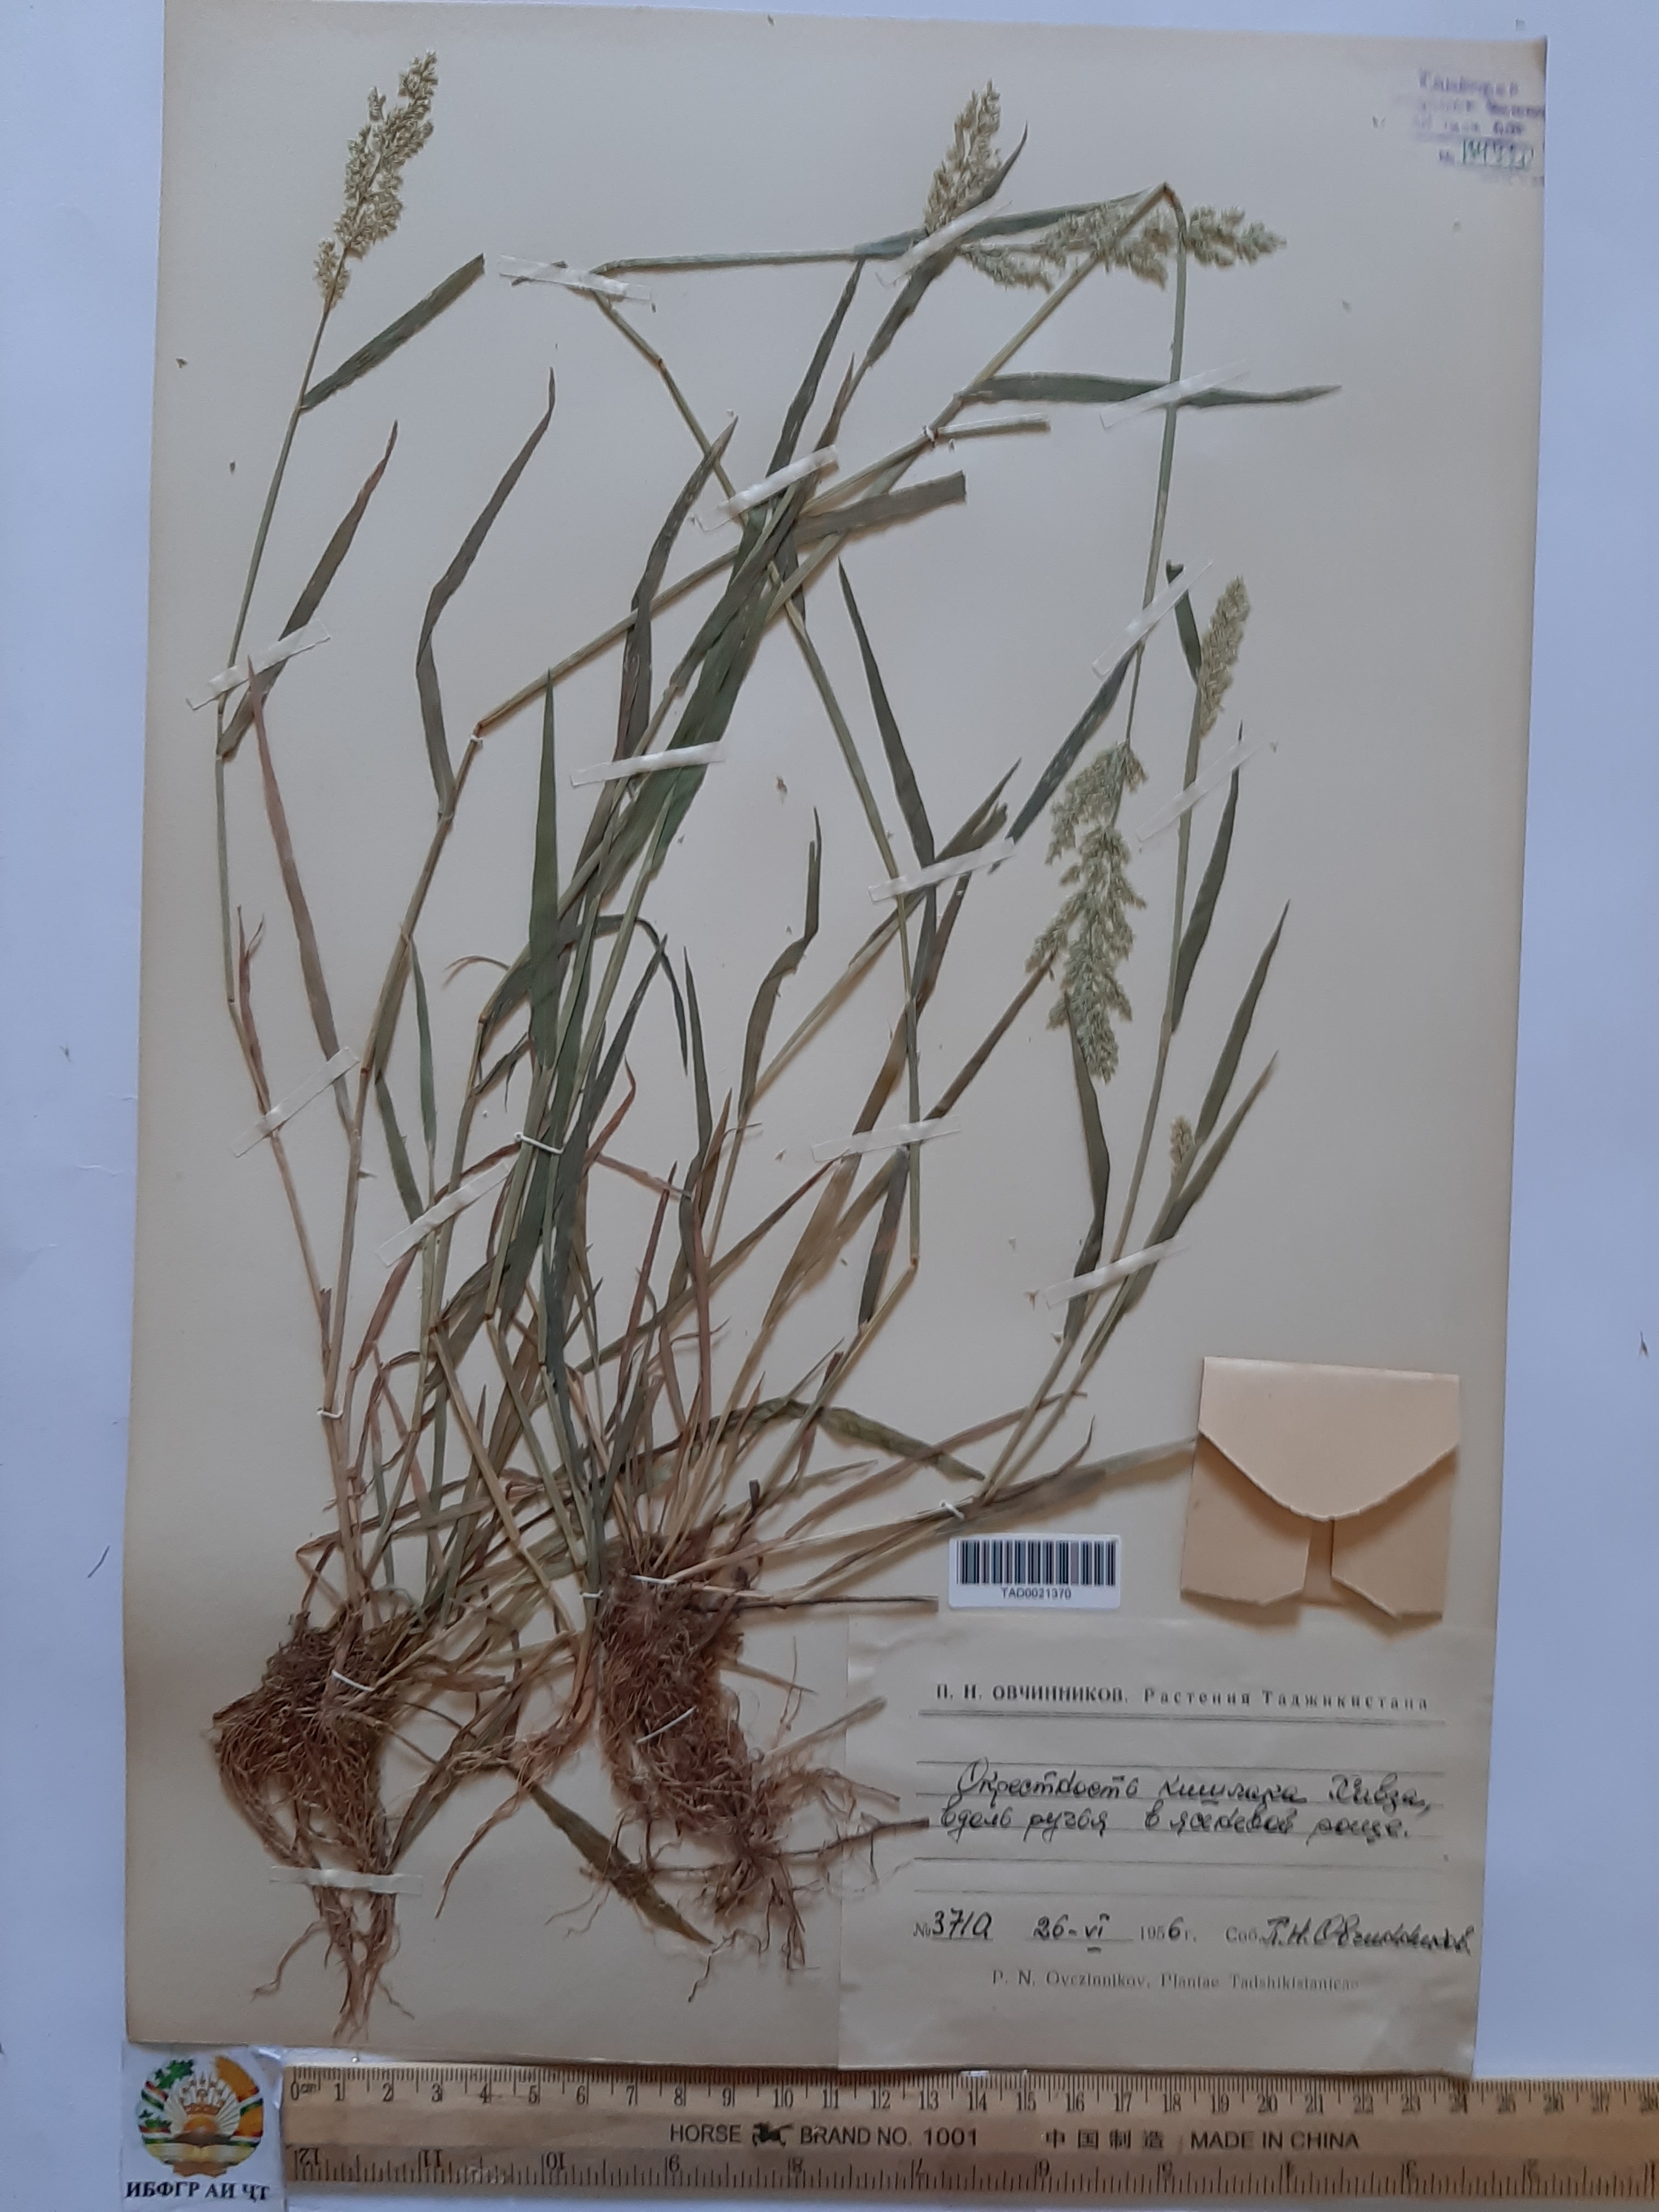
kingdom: Plantae
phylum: Tracheophyta
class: Liliopsida
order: Poales
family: Poaceae
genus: Poa
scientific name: Poa nemoralis
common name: Wood bluegrass
